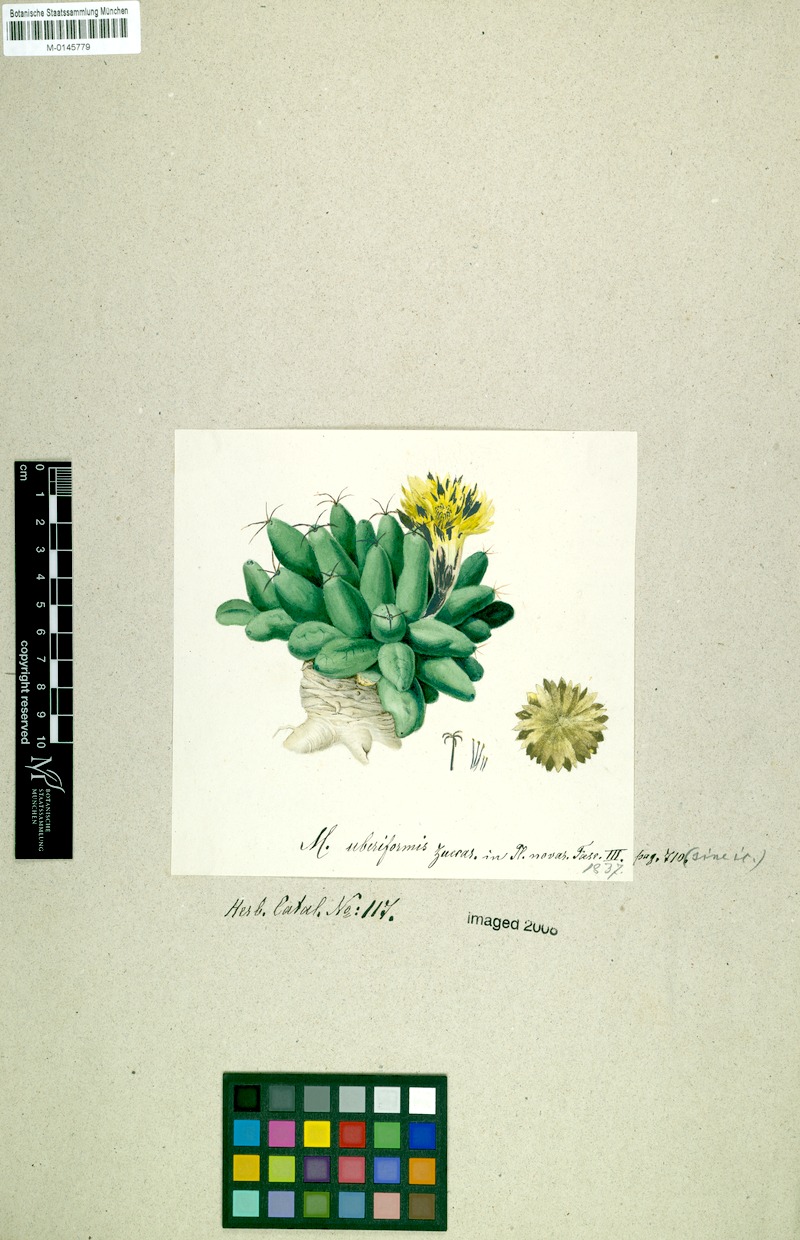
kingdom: Plantae
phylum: Tracheophyta
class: Magnoliopsida
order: Caryophyllales
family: Cactaceae
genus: Mammillaria
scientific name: Mammillaria longimamma
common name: Pineapple cactus
